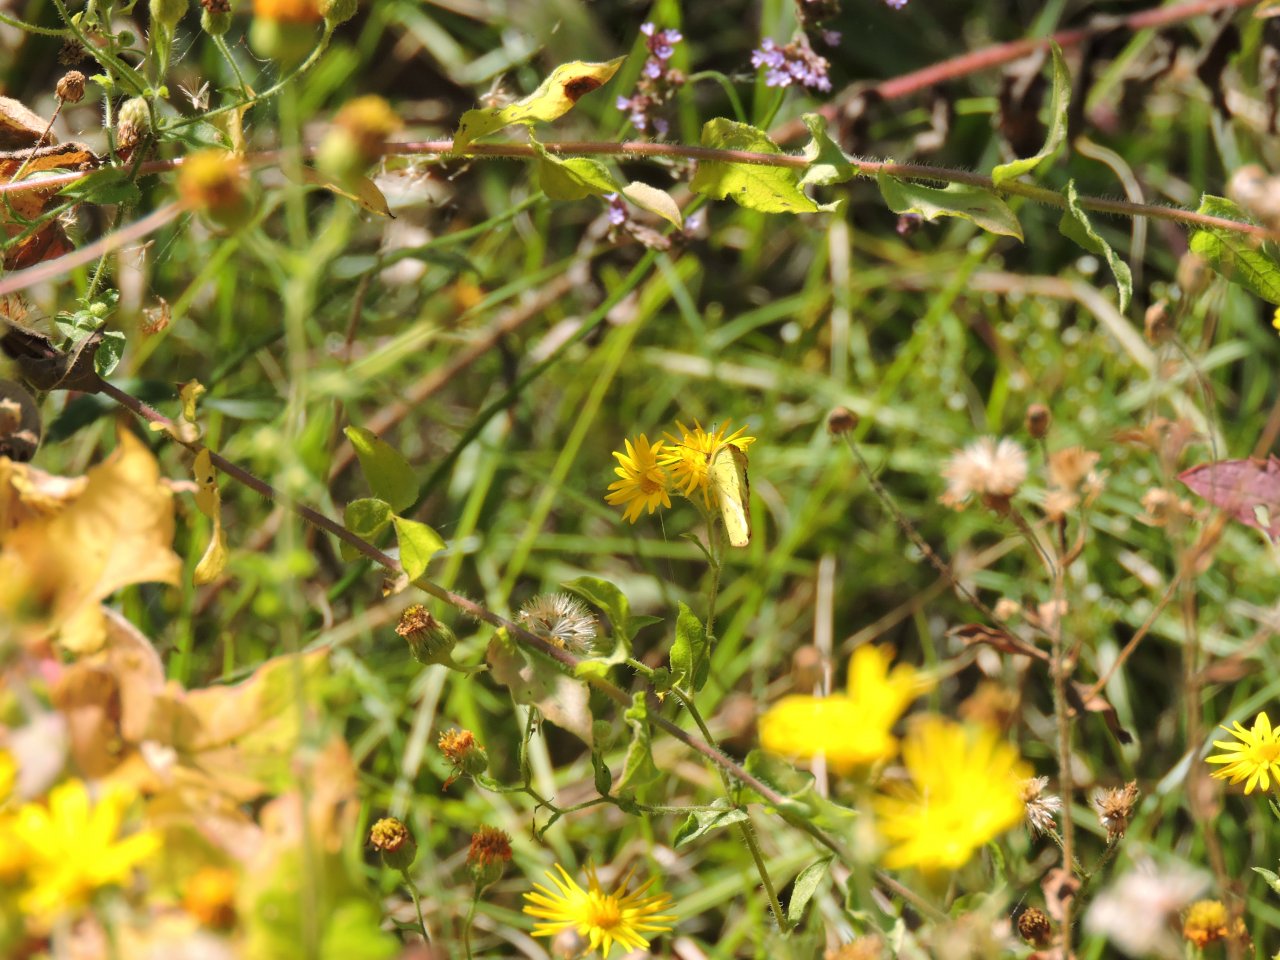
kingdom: Animalia
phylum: Arthropoda
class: Insecta
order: Lepidoptera
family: Pieridae
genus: Pyrisitia
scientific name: Pyrisitia lisa
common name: Little Yellow
